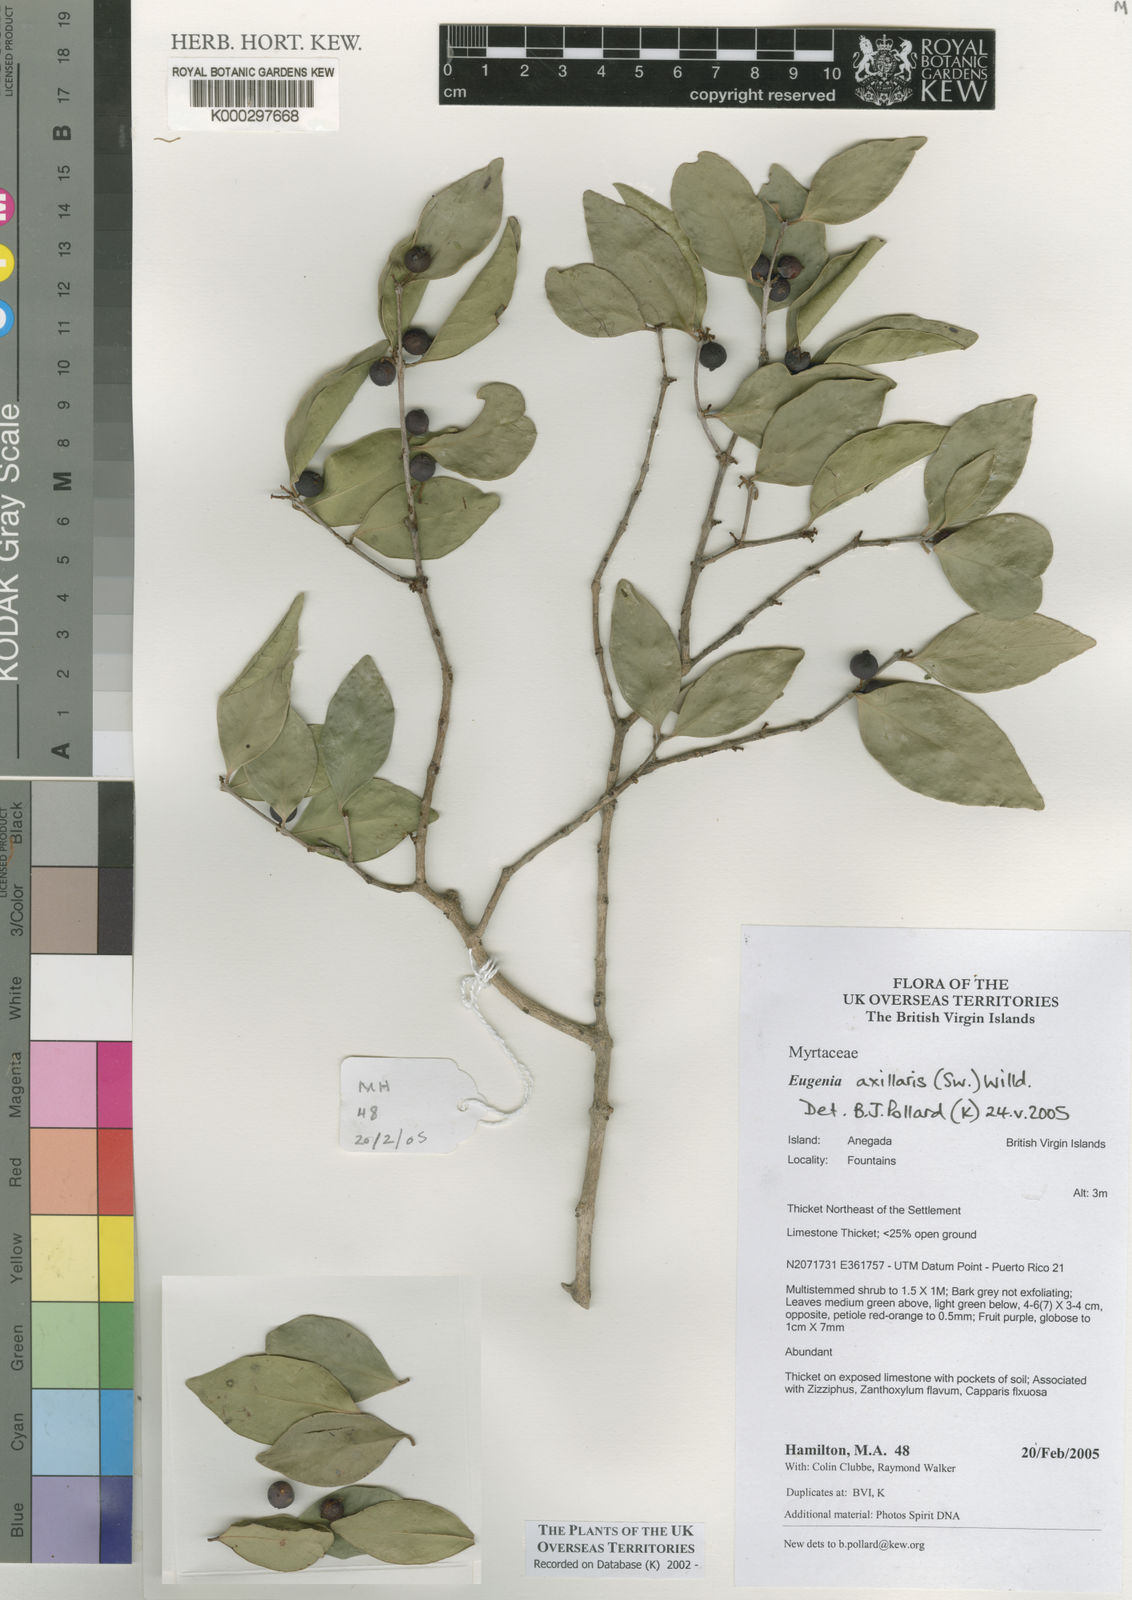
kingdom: Plantae
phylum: Tracheophyta
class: Magnoliopsida
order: Myrtales
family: Myrtaceae
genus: Eugenia
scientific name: Eugenia axillaris
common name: Choaky berry
